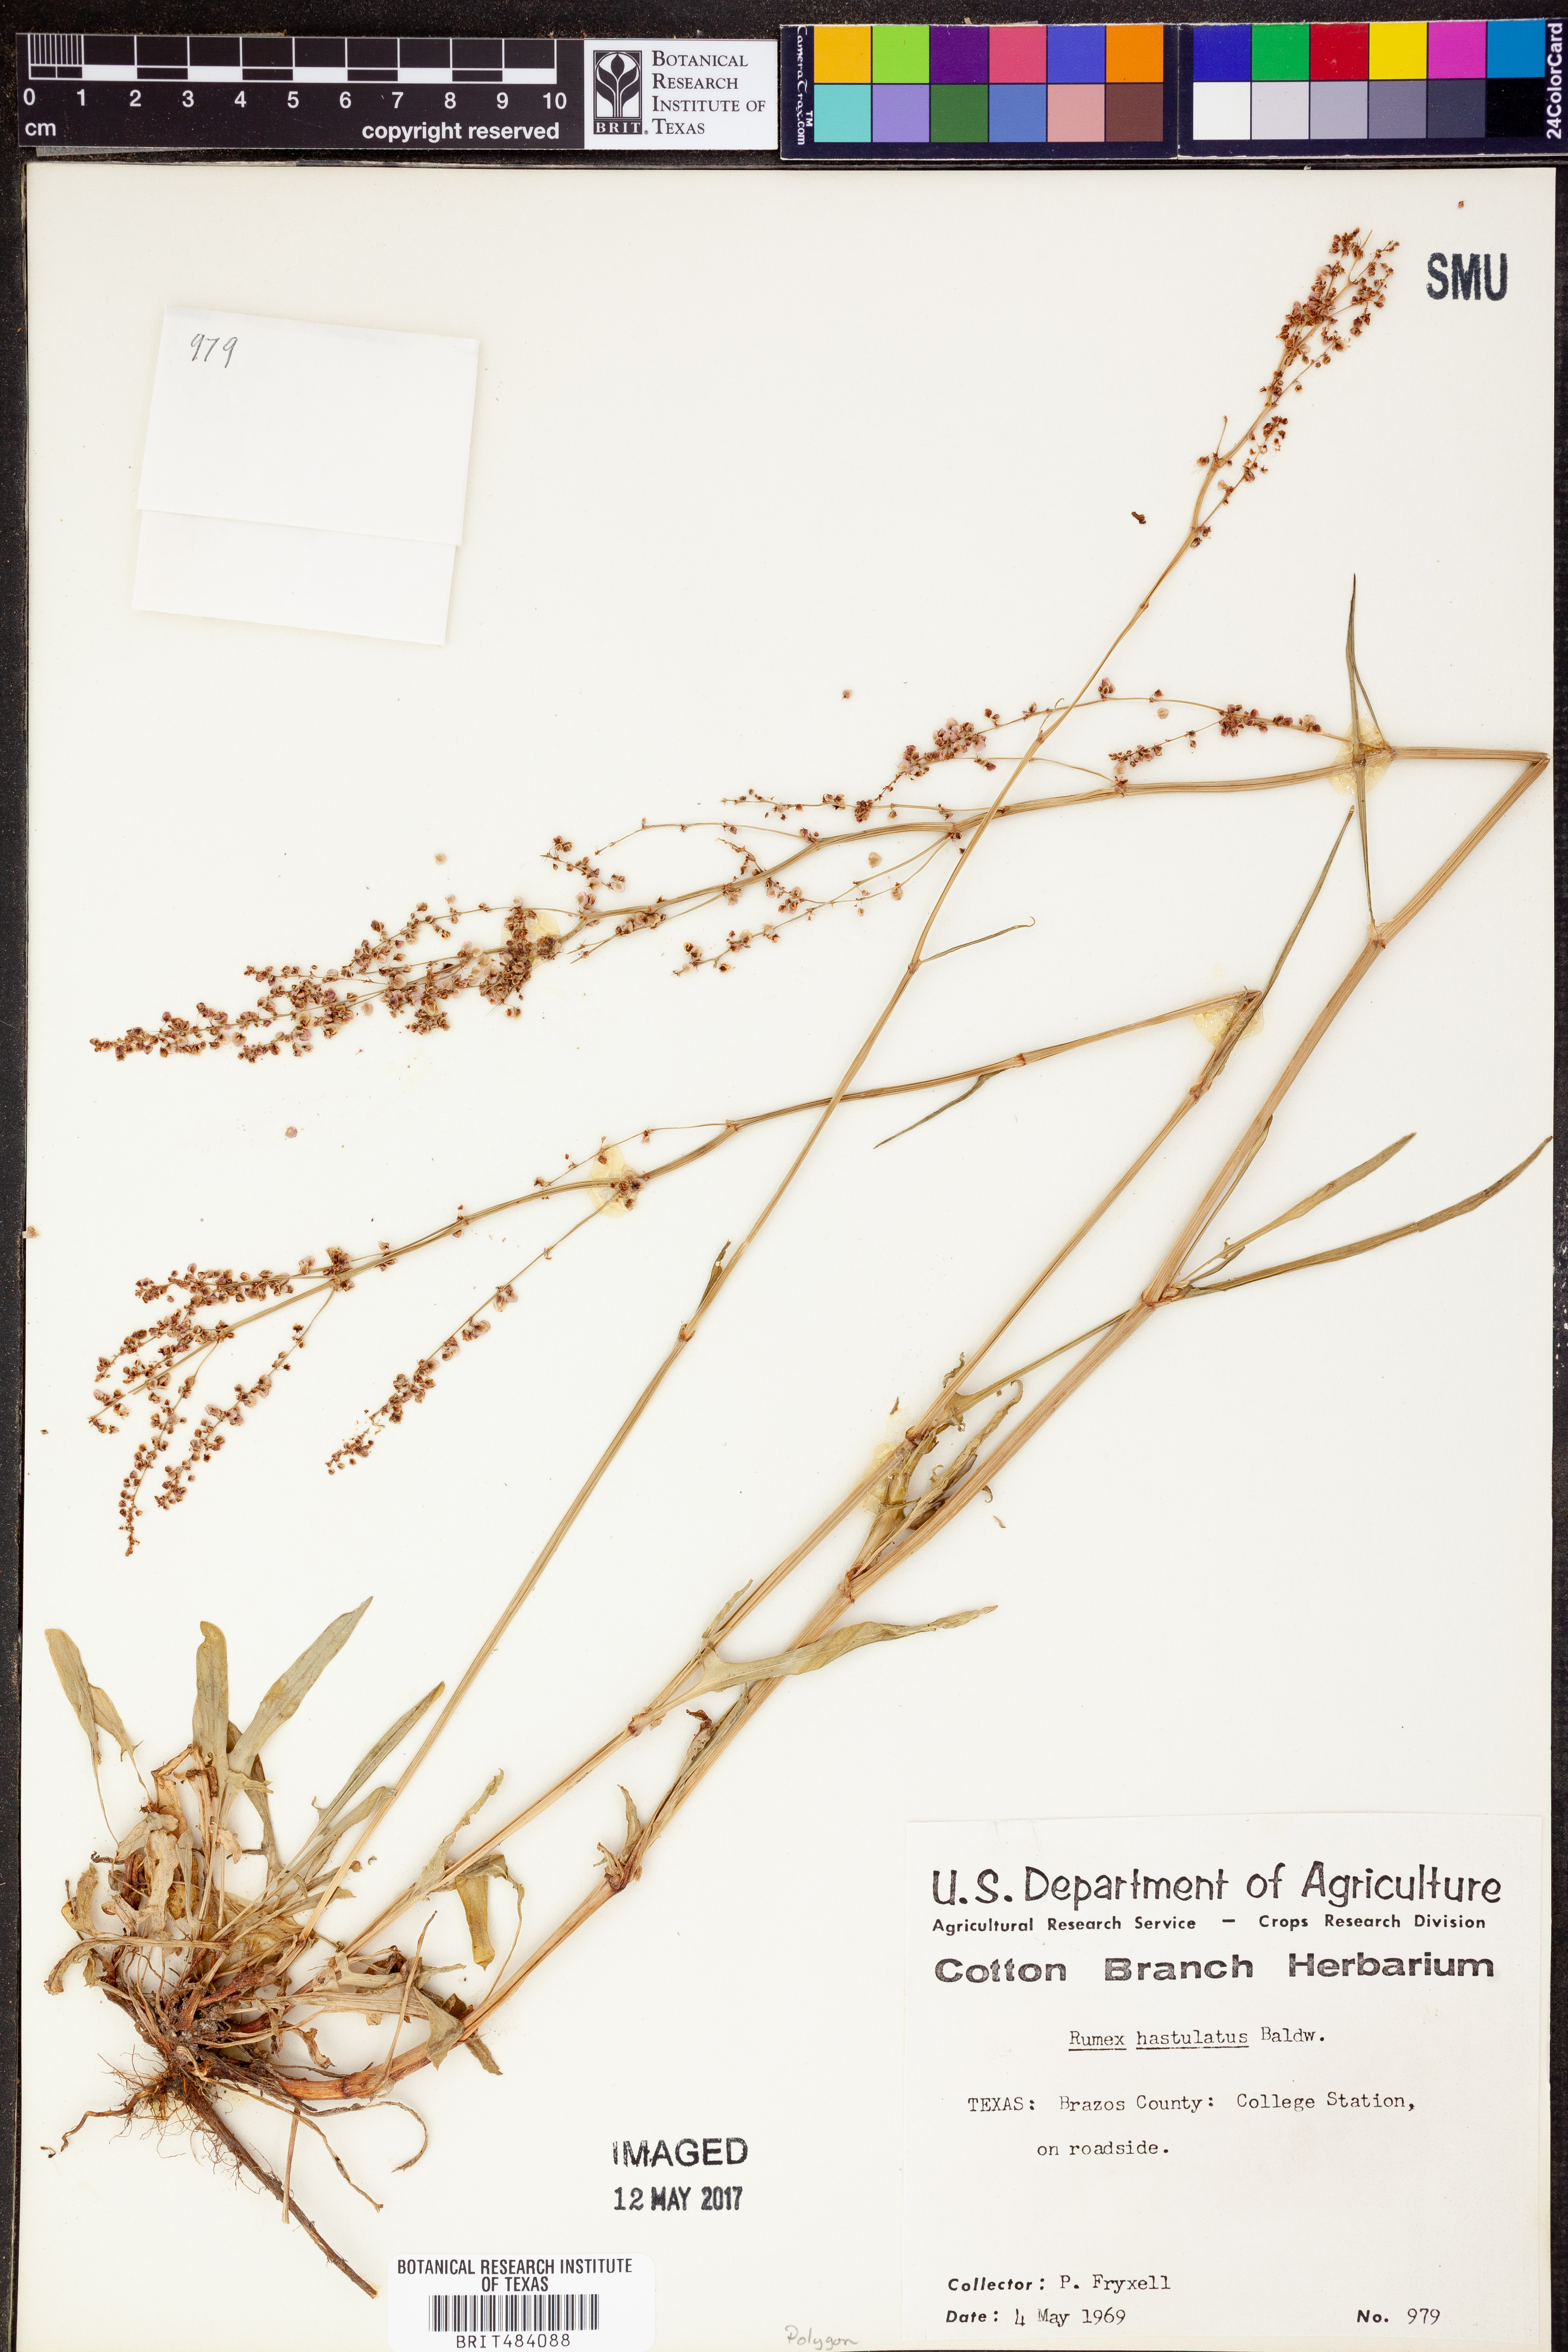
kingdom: Plantae
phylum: Tracheophyta
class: Magnoliopsida
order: Caryophyllales
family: Polygonaceae
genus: Rumex
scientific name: Rumex hastatulus
